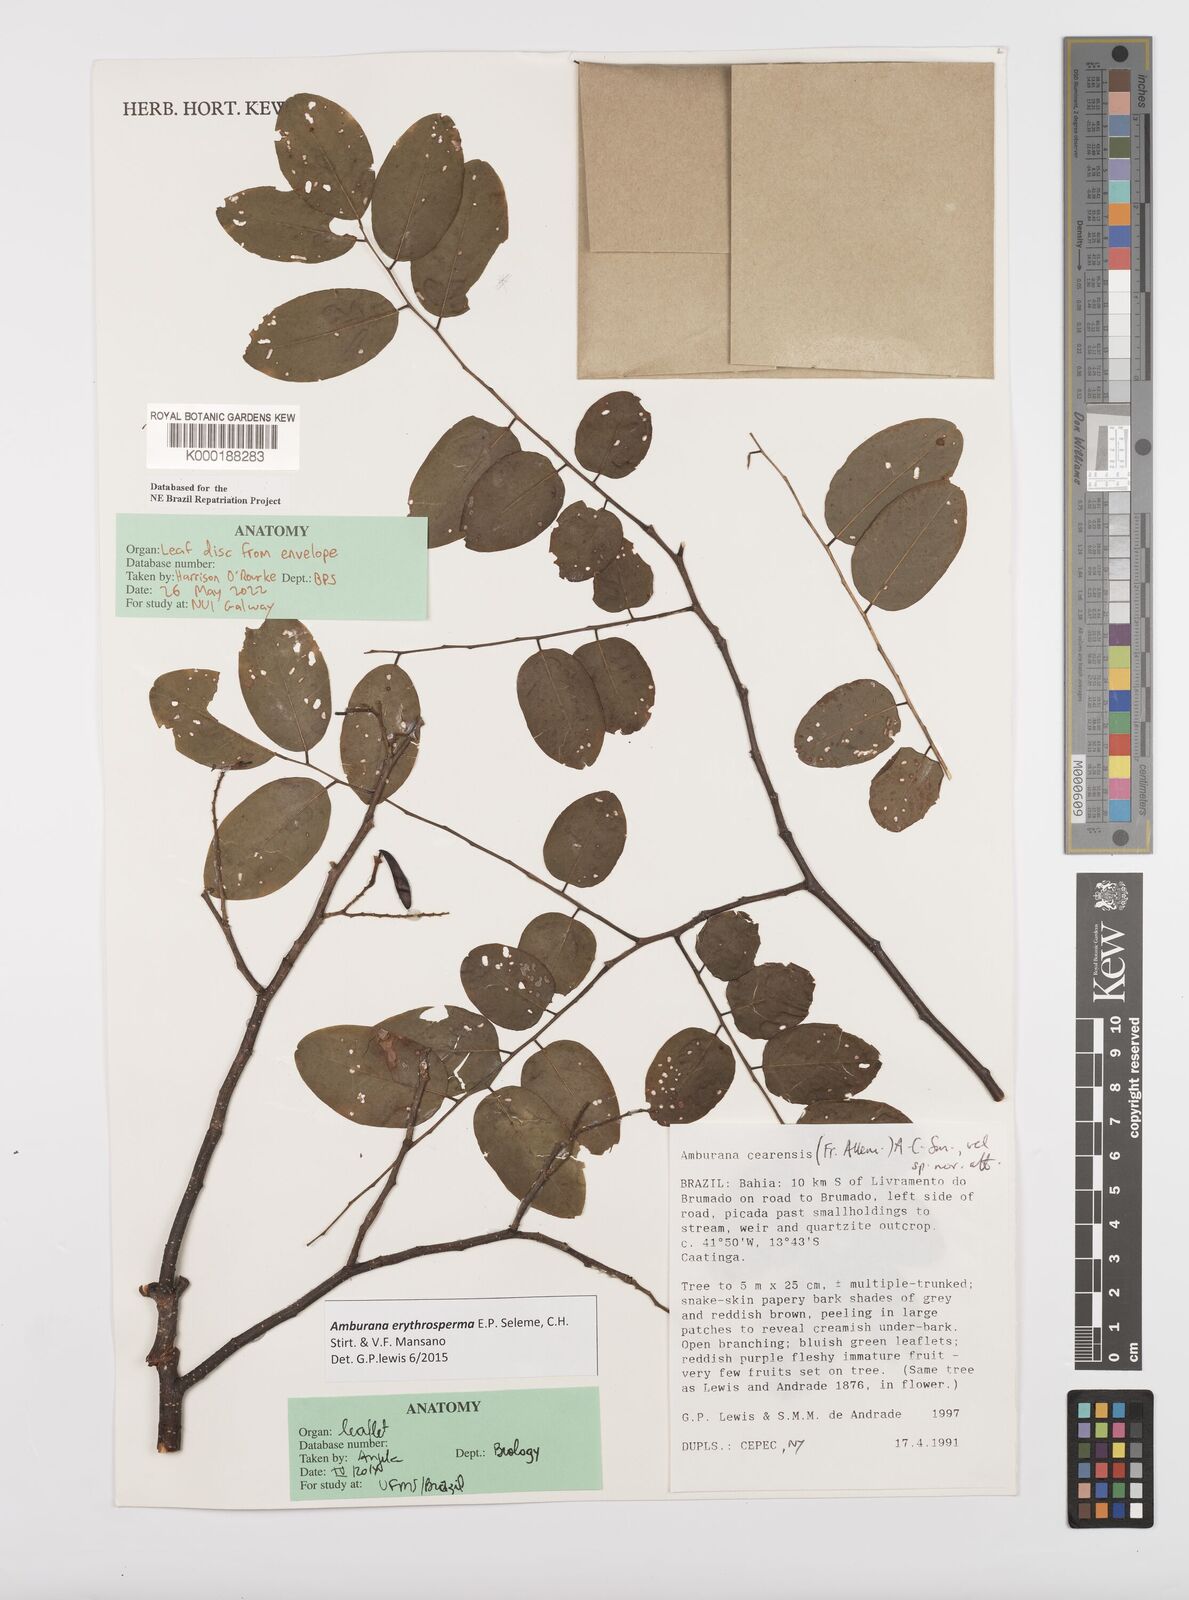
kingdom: Plantae
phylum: Tracheophyta
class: Magnoliopsida
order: Fabales
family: Fabaceae
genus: Amburana
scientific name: Amburana
